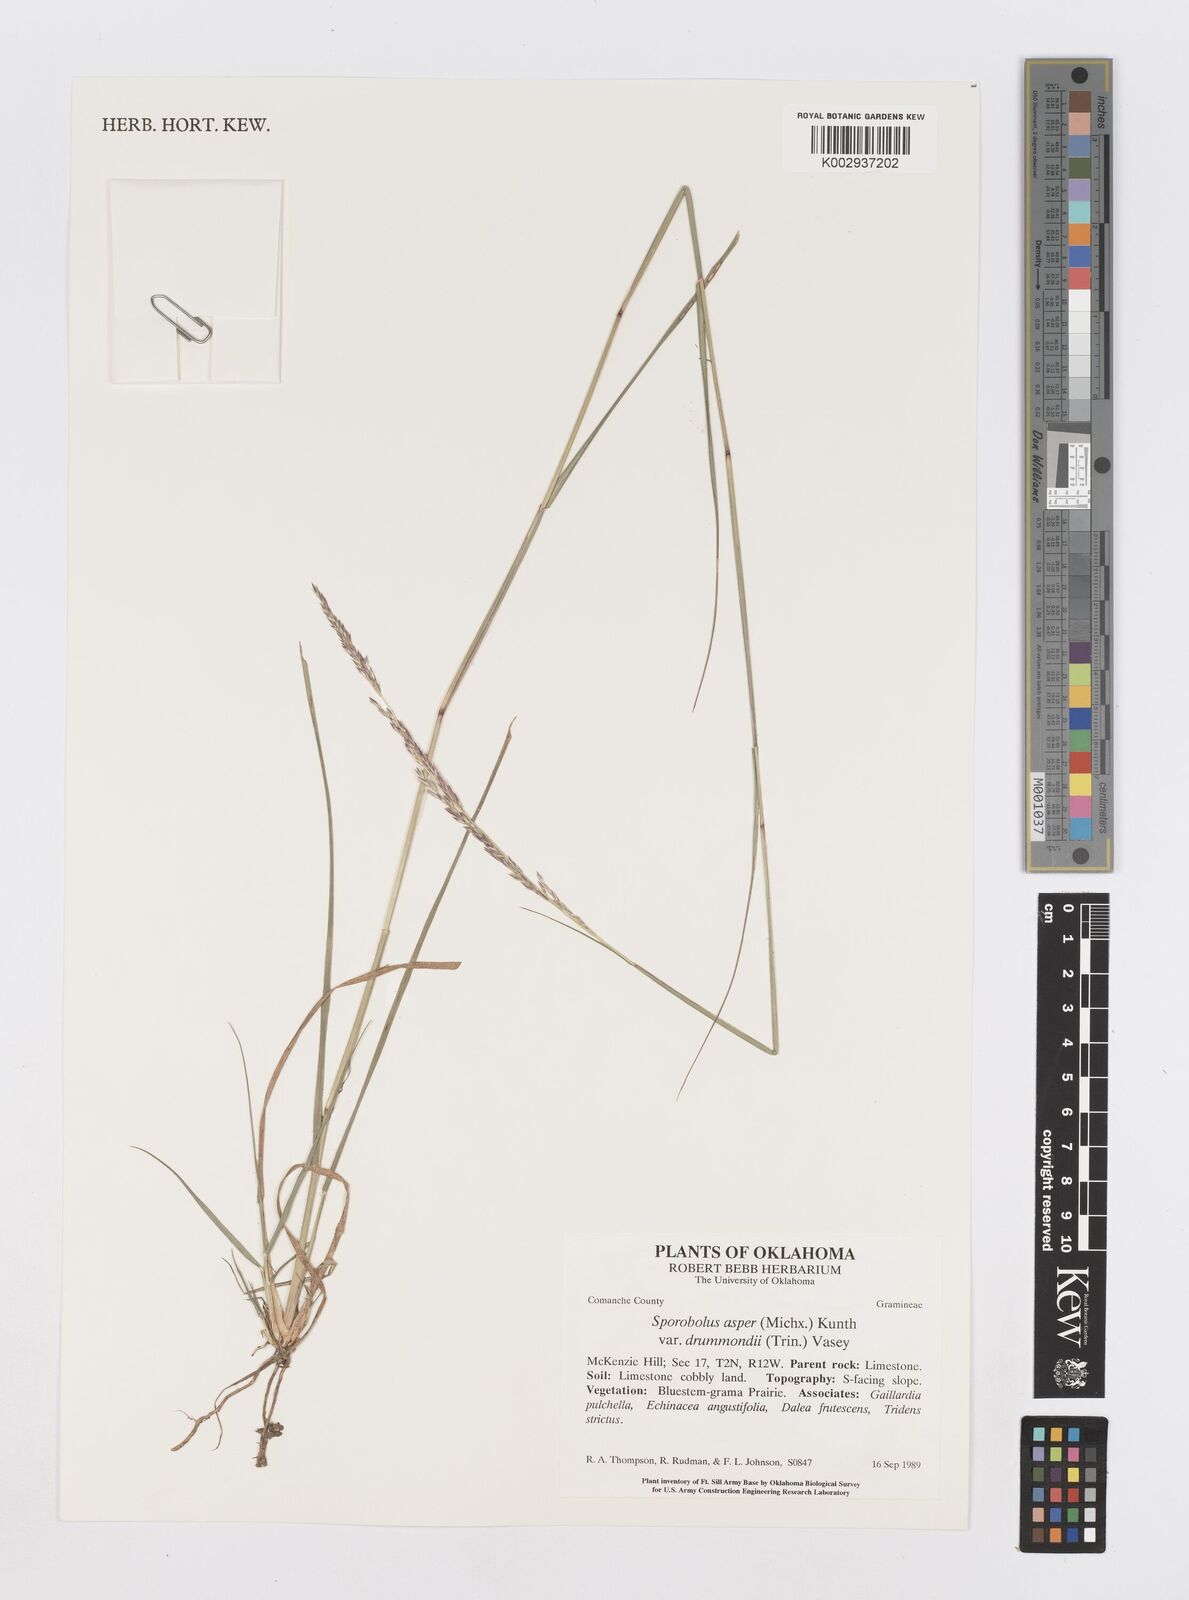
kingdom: Plantae
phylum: Tracheophyta
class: Liliopsida
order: Poales
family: Poaceae
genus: Sporobolus
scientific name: Sporobolus compositus
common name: Rough dropseed
